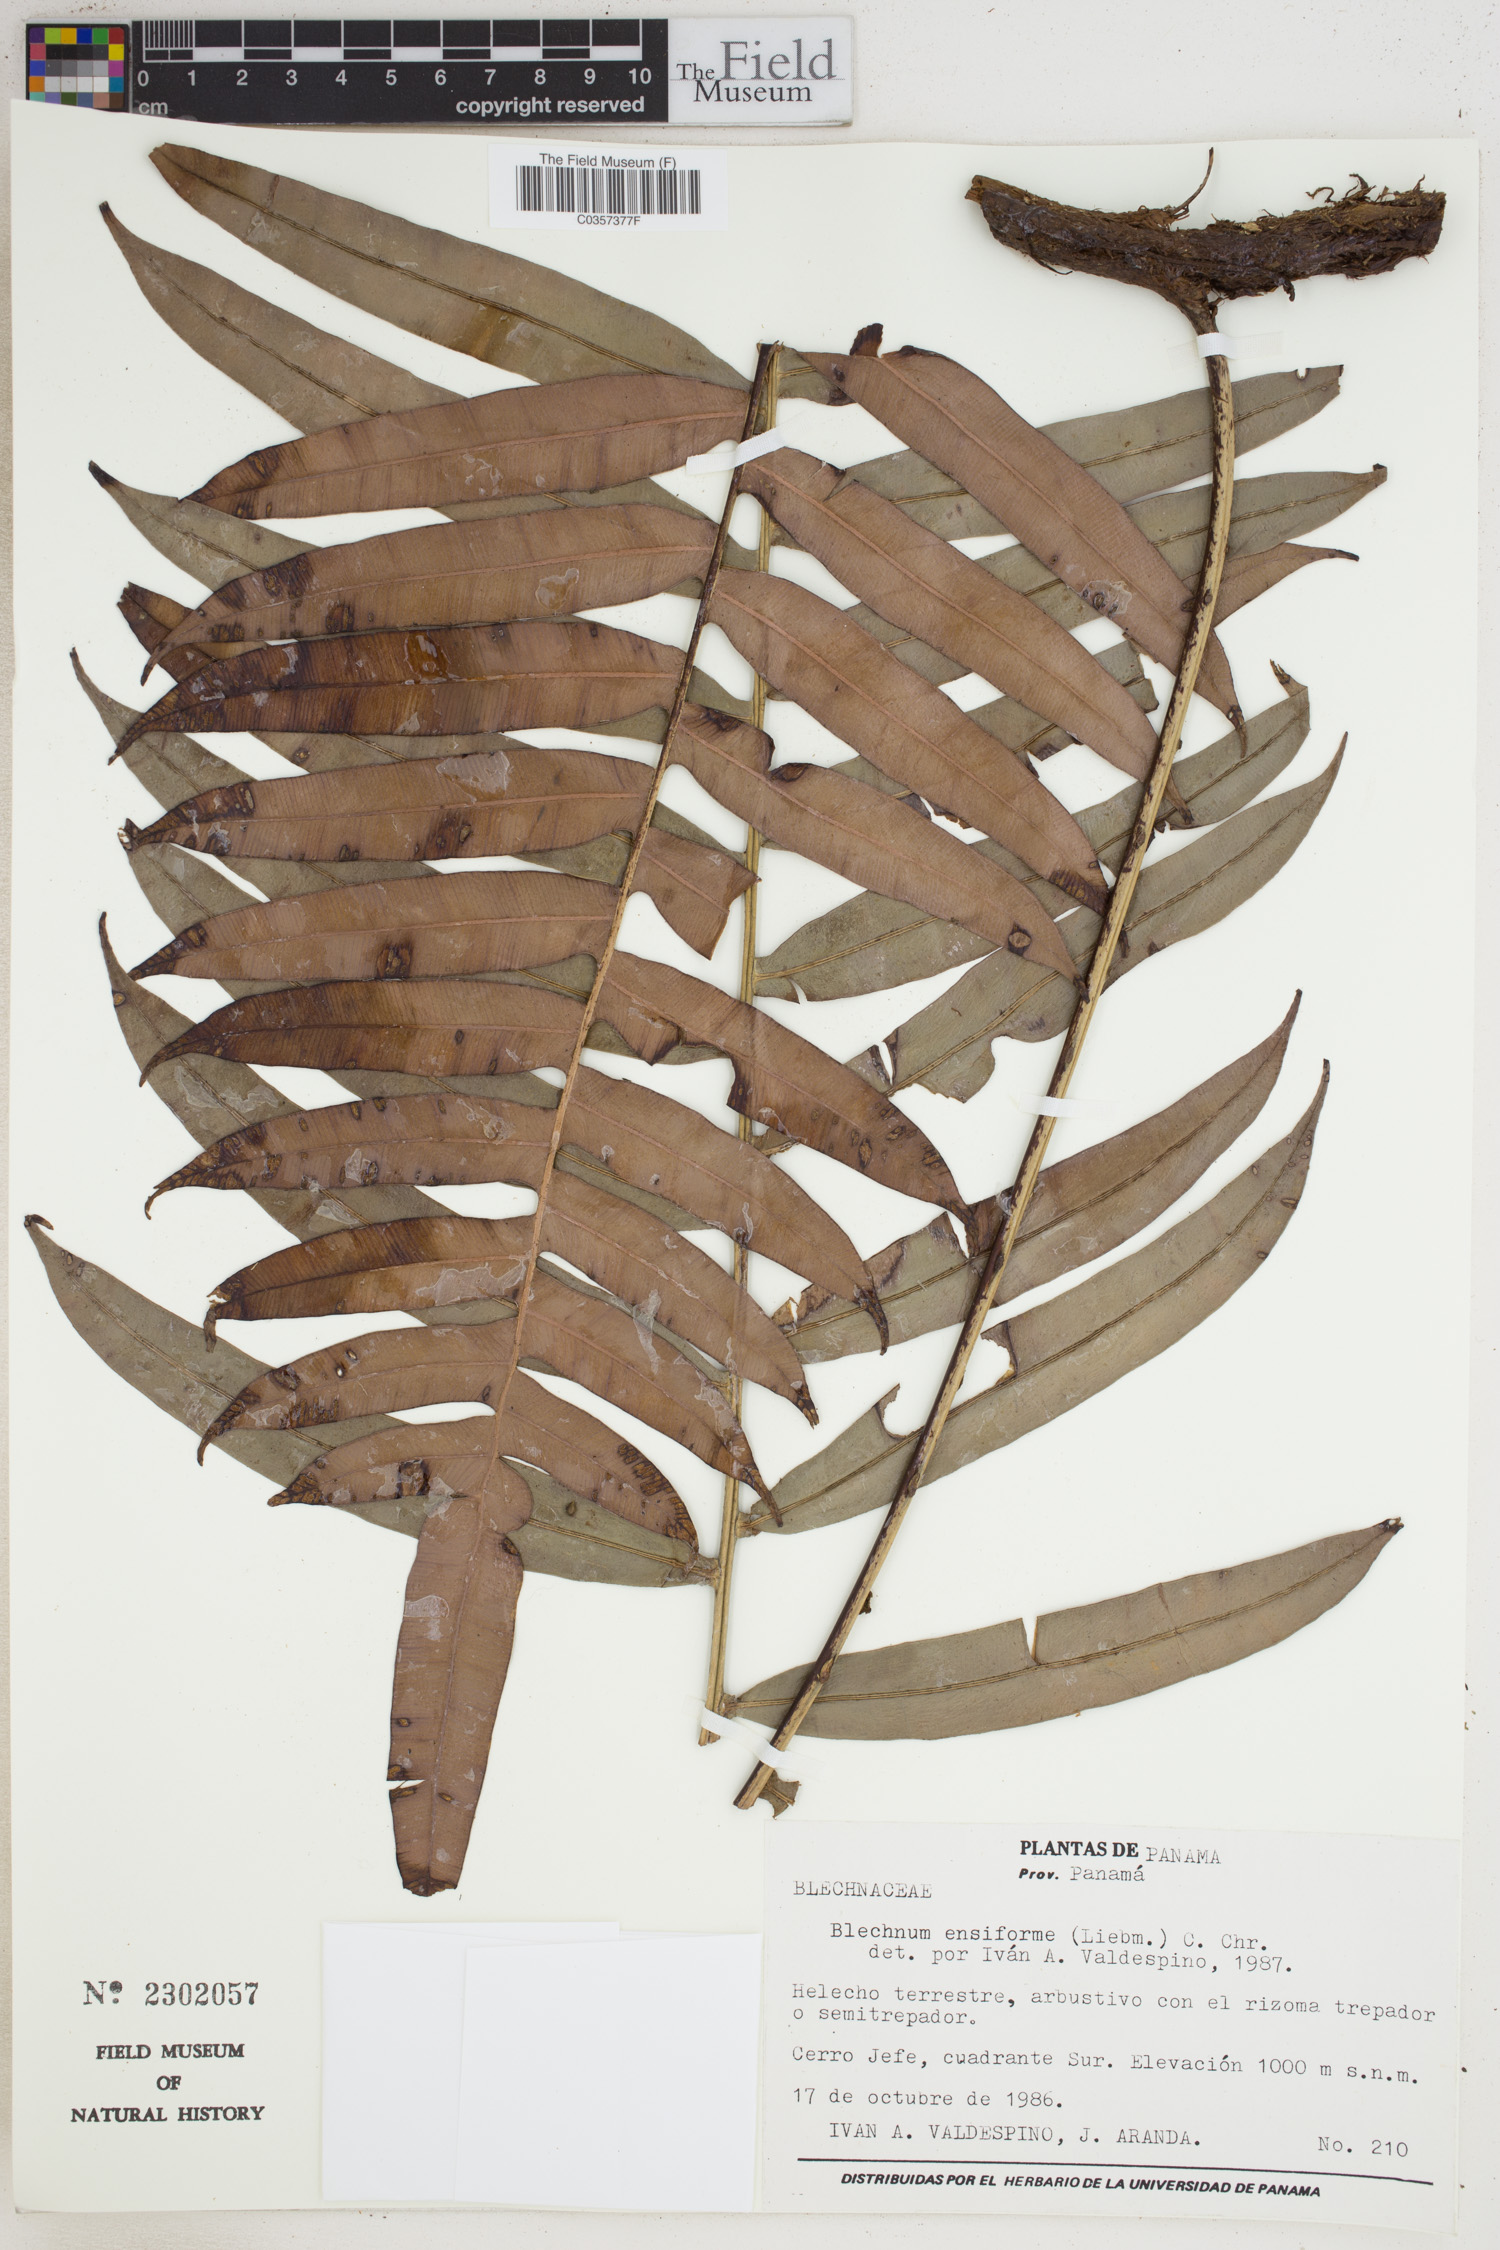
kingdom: Plantae
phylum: Tracheophyta
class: Polypodiopsida
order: Polypodiales
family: Blechnaceae
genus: Lomaridium
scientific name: Lomaridium ensiforme
